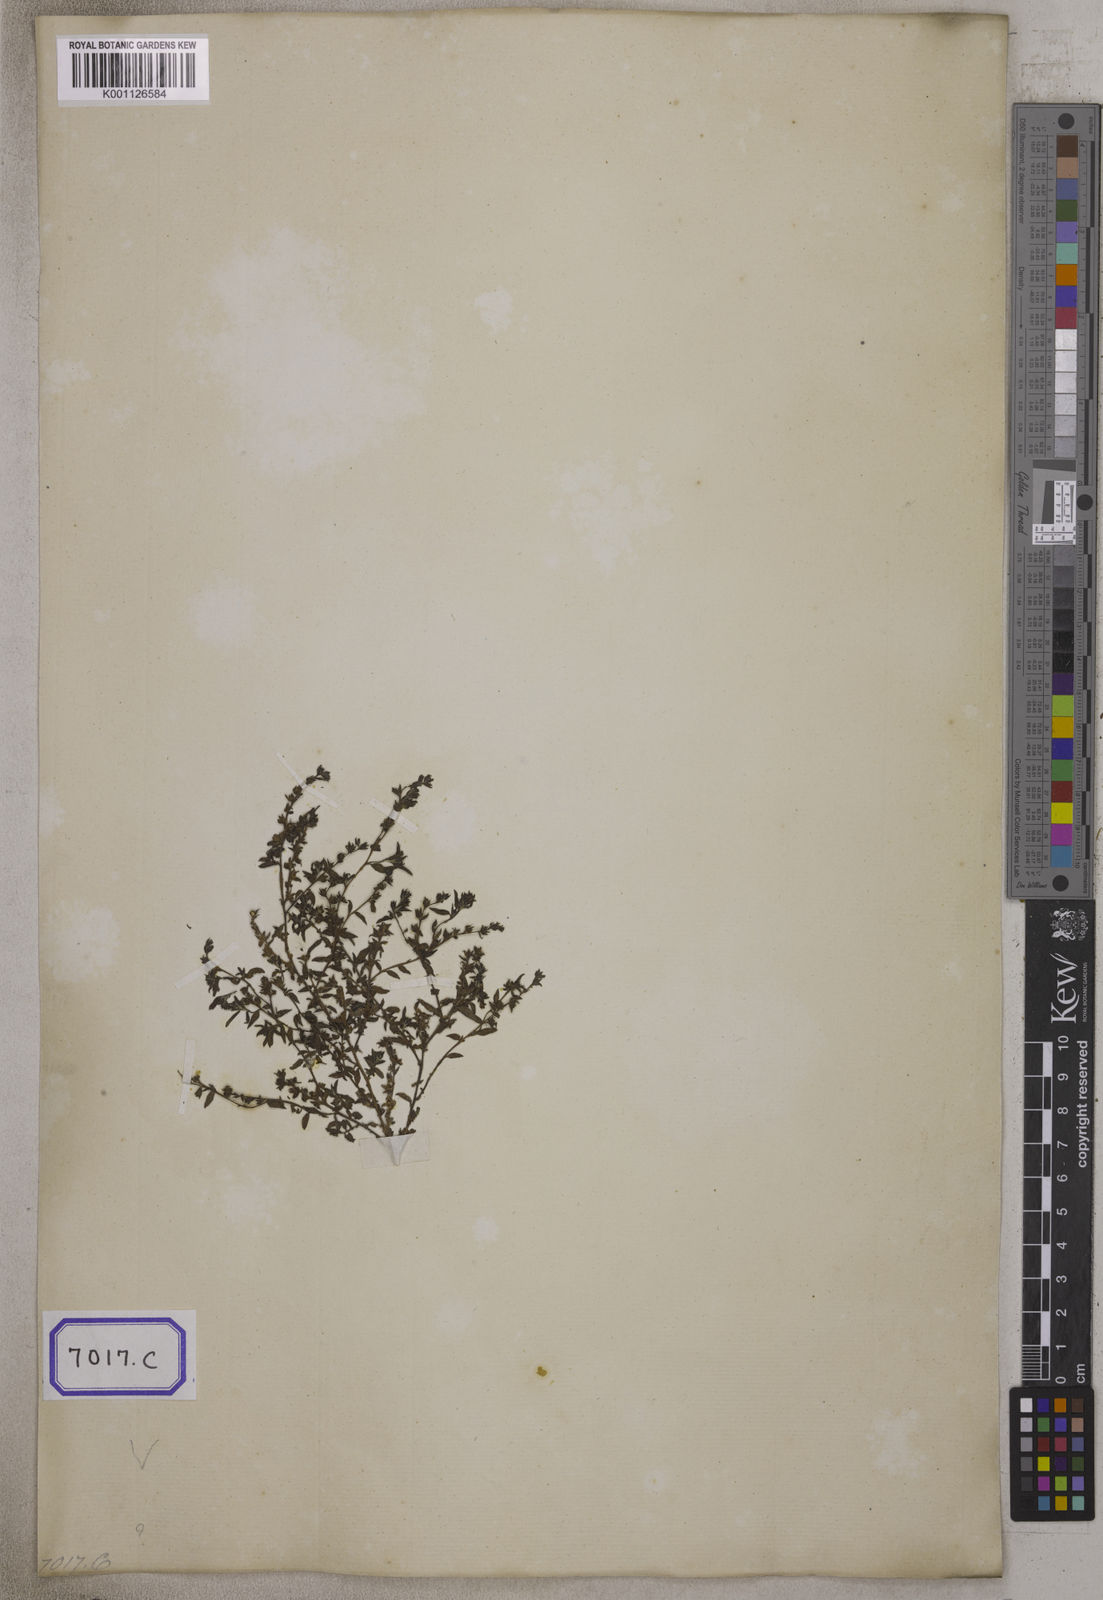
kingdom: Plantae
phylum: Tracheophyta
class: Magnoliopsida
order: Boraginales
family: Heliotropiaceae
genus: Euploca
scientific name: Euploca marifolia
